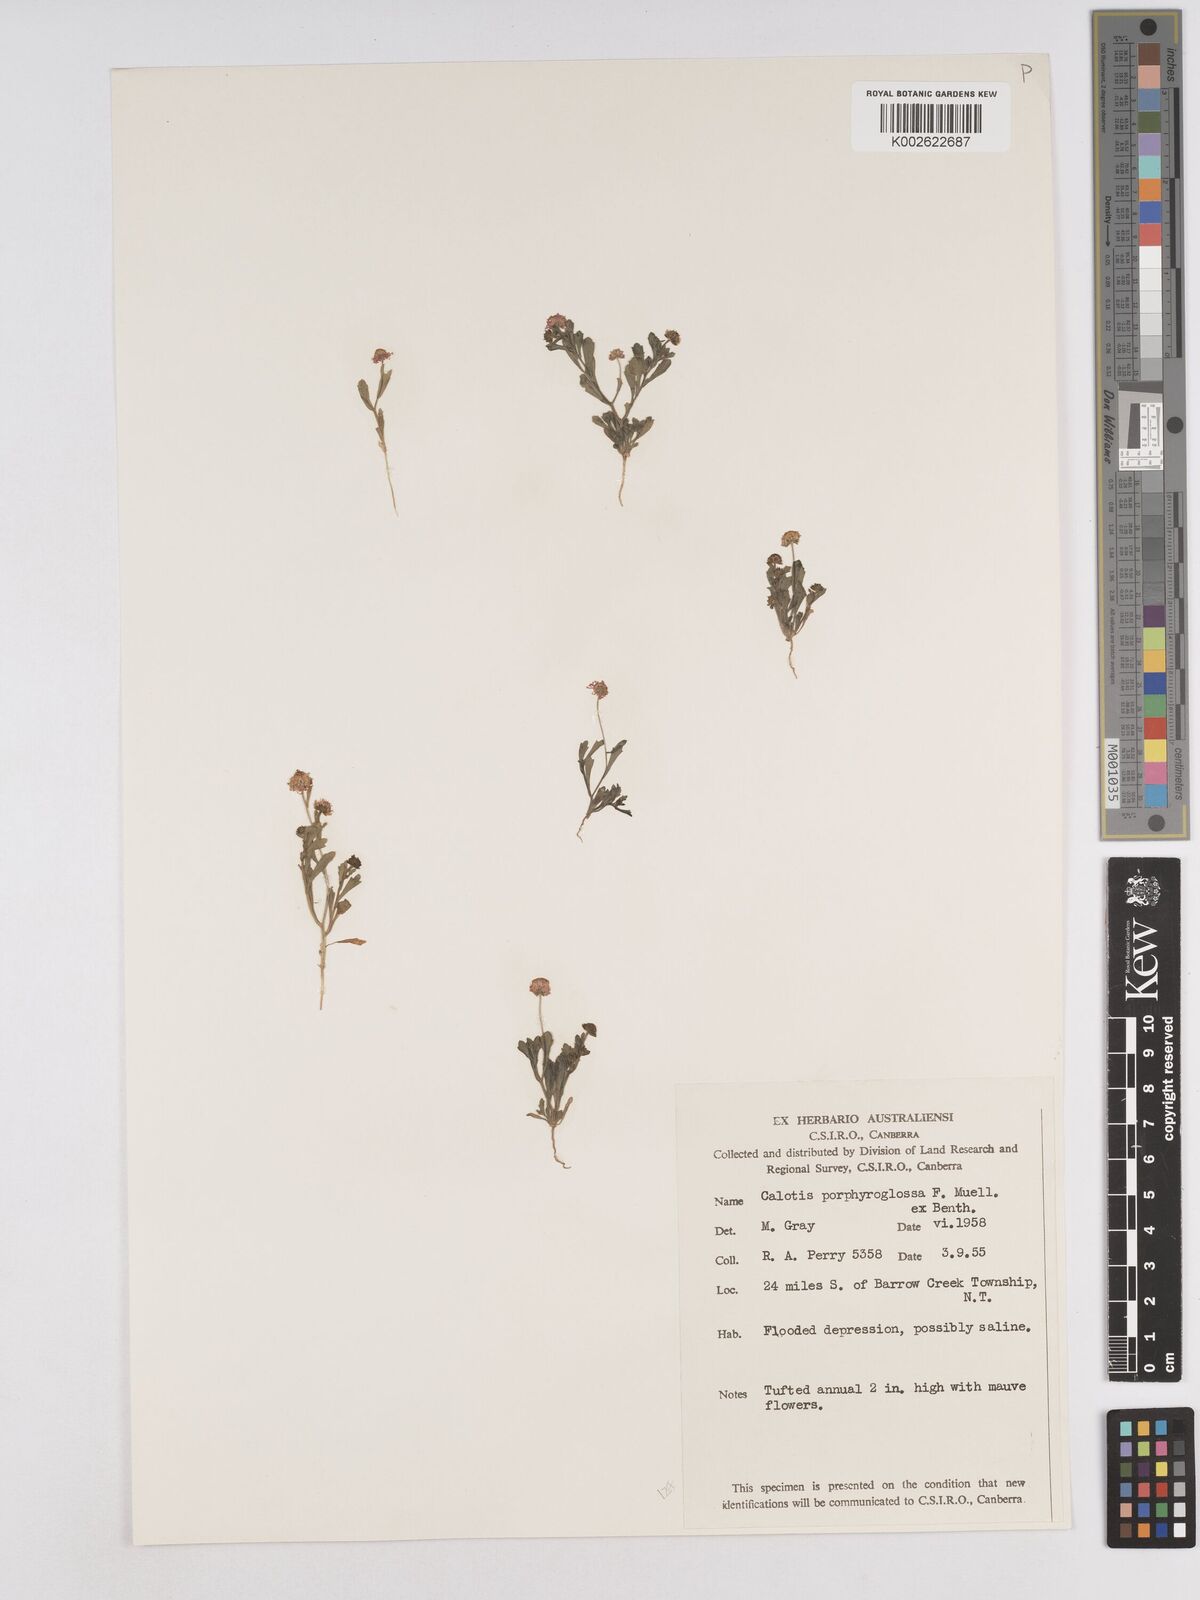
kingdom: Plantae
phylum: Tracheophyta
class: Magnoliopsida
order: Asterales
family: Asteraceae
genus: Calotis
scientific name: Calotis porphyroglossa
